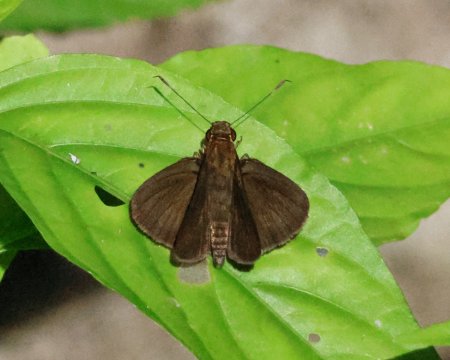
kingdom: Animalia
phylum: Arthropoda
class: Insecta
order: Lepidoptera
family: Hesperiidae
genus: Nastra
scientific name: Nastra insignis
